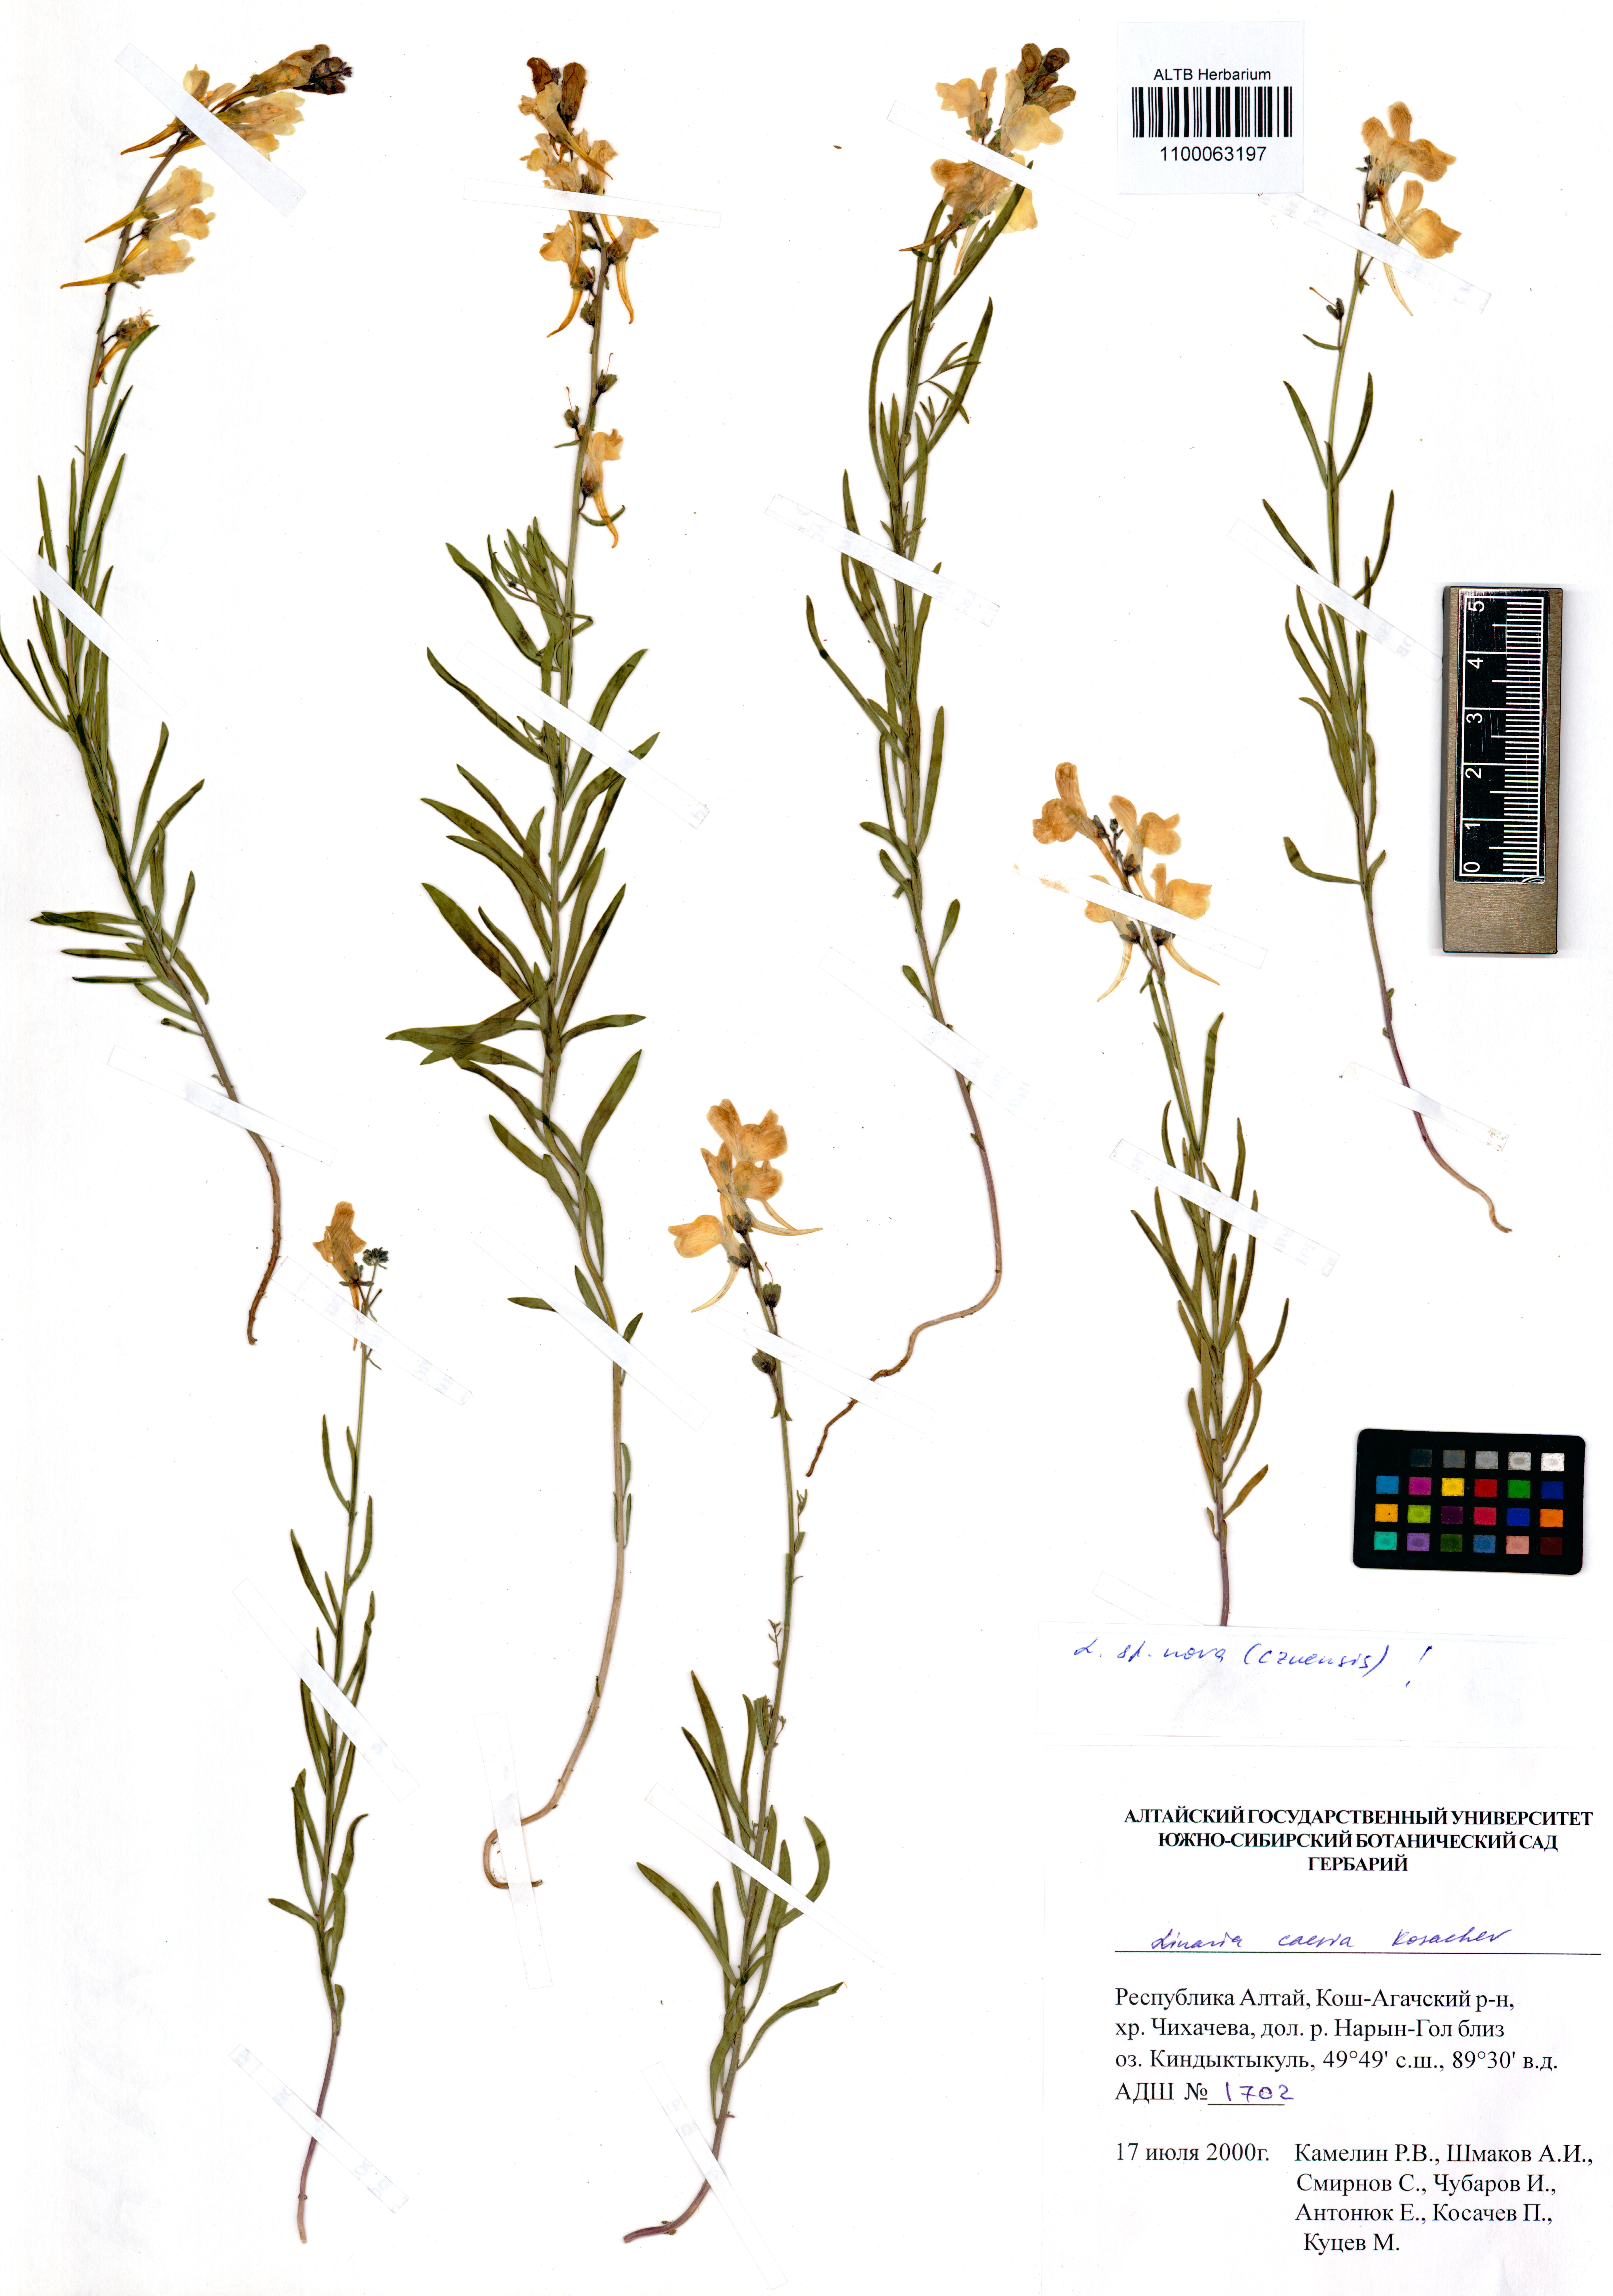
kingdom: Plantae
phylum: Tracheophyta
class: Magnoliopsida
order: Lamiales
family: Plantaginaceae
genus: Linaria
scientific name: Linaria caesia
